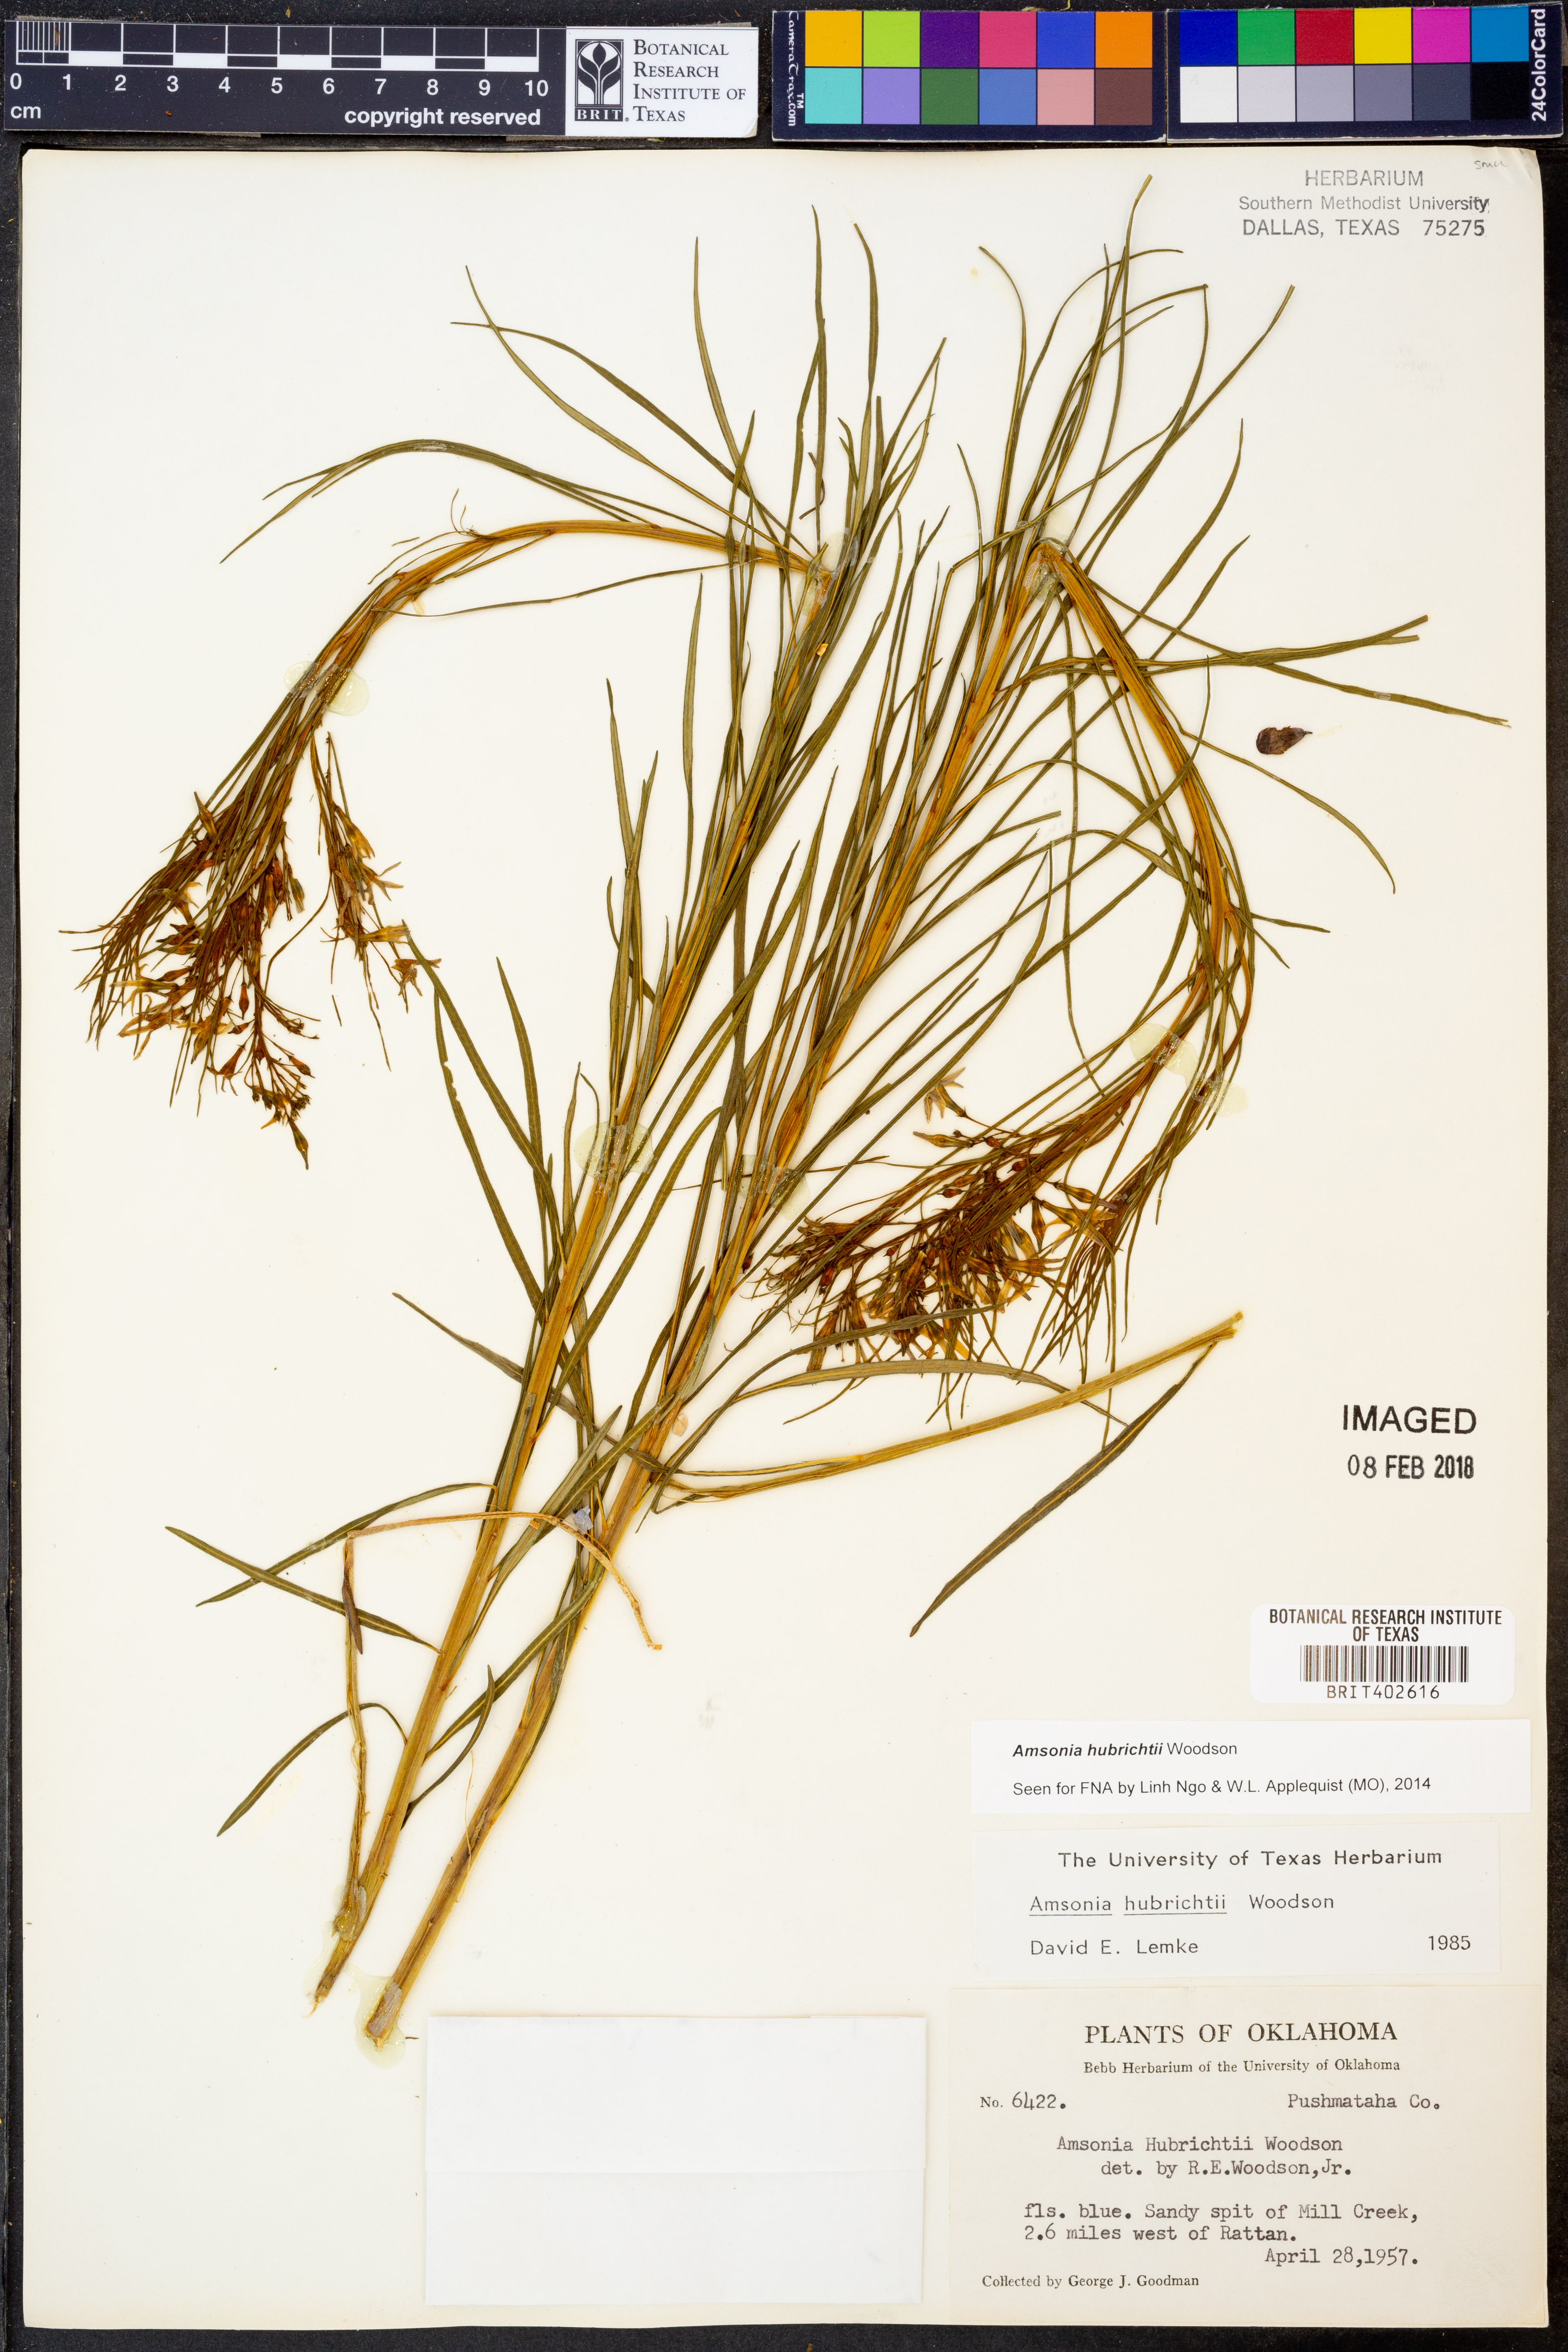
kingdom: Plantae
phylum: Tracheophyta
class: Magnoliopsida
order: Gentianales
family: Apocynaceae
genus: Amsonia
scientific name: Amsonia hubrichtii
